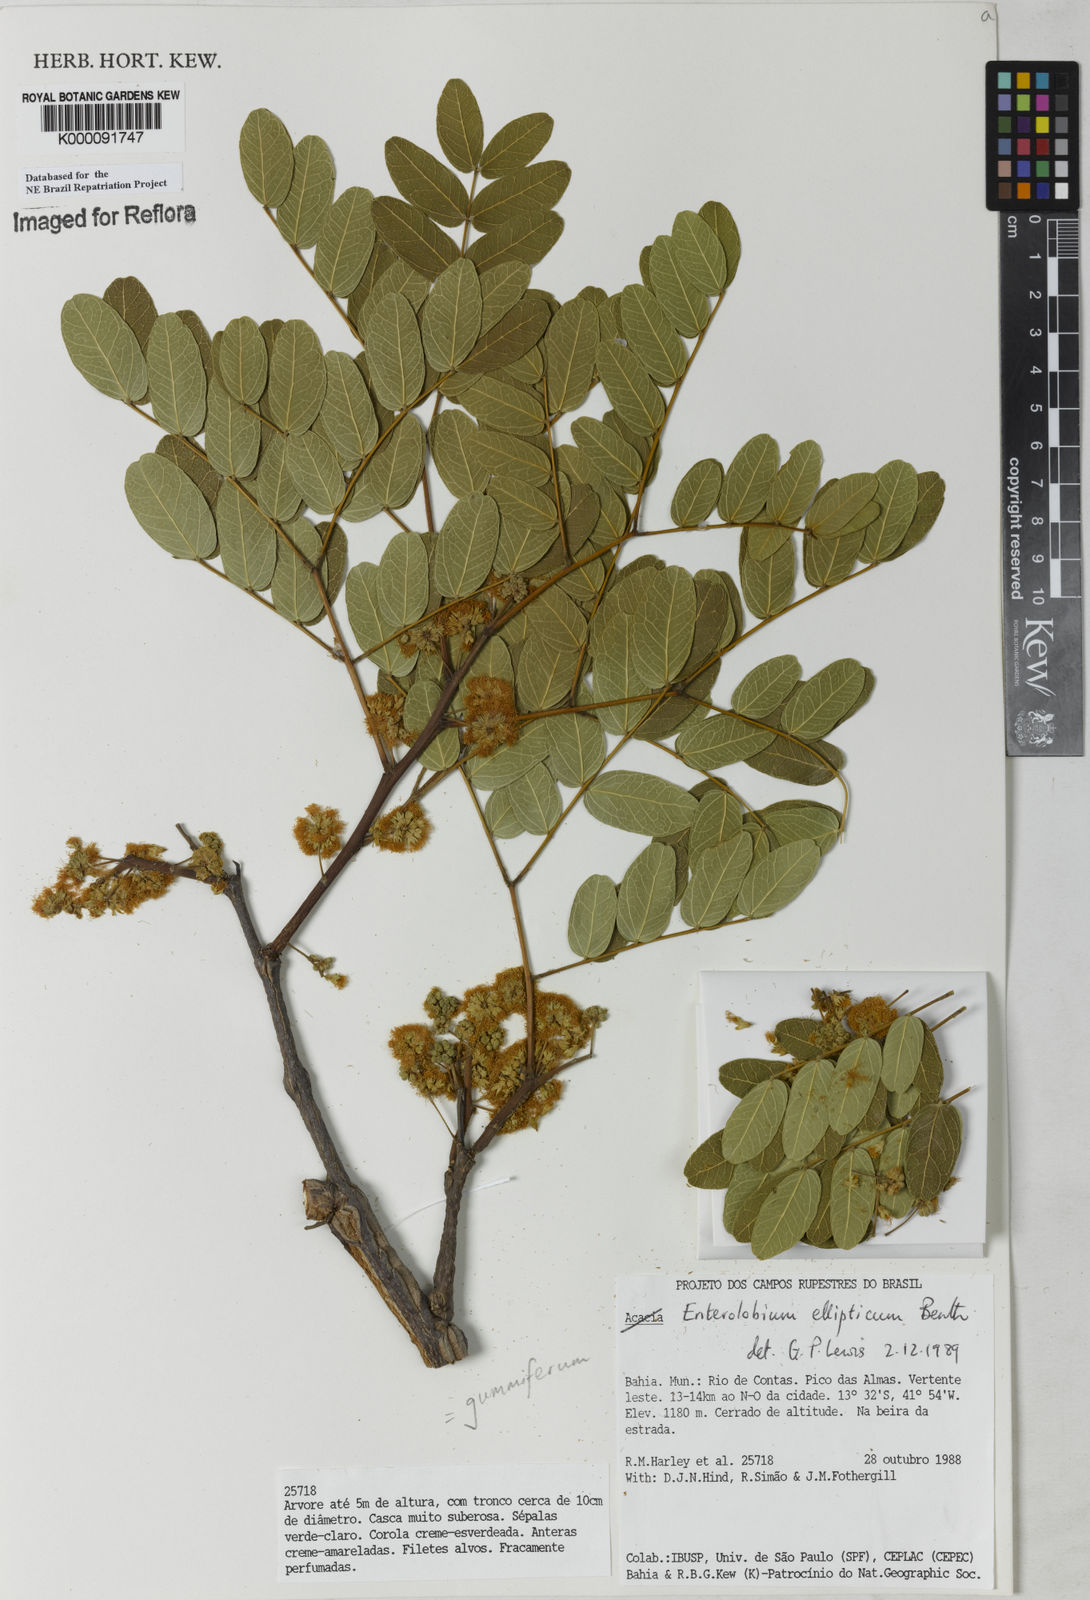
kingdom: Plantae
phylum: Tracheophyta
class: Magnoliopsida
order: Fabales
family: Fabaceae
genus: Enterolobium
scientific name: Enterolobium gummiferum
